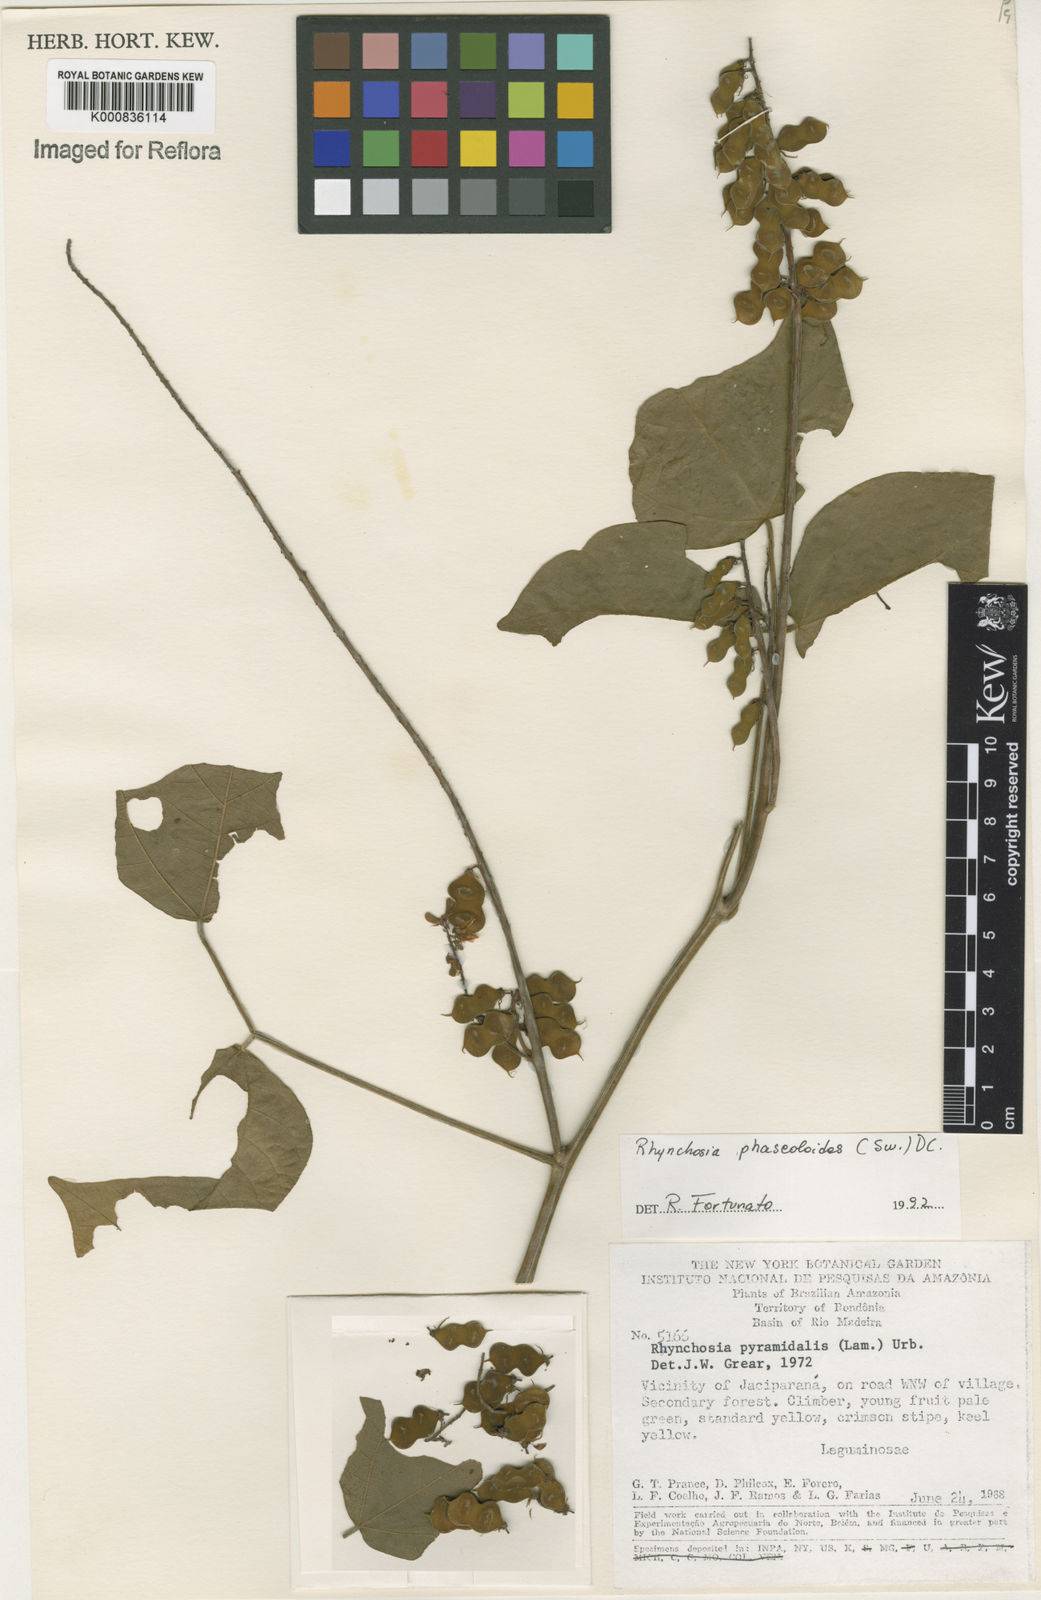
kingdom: Plantae
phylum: Tracheophyta
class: Magnoliopsida
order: Fabales
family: Fabaceae
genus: Rhynchosia
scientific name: Rhynchosia phaseoloides
